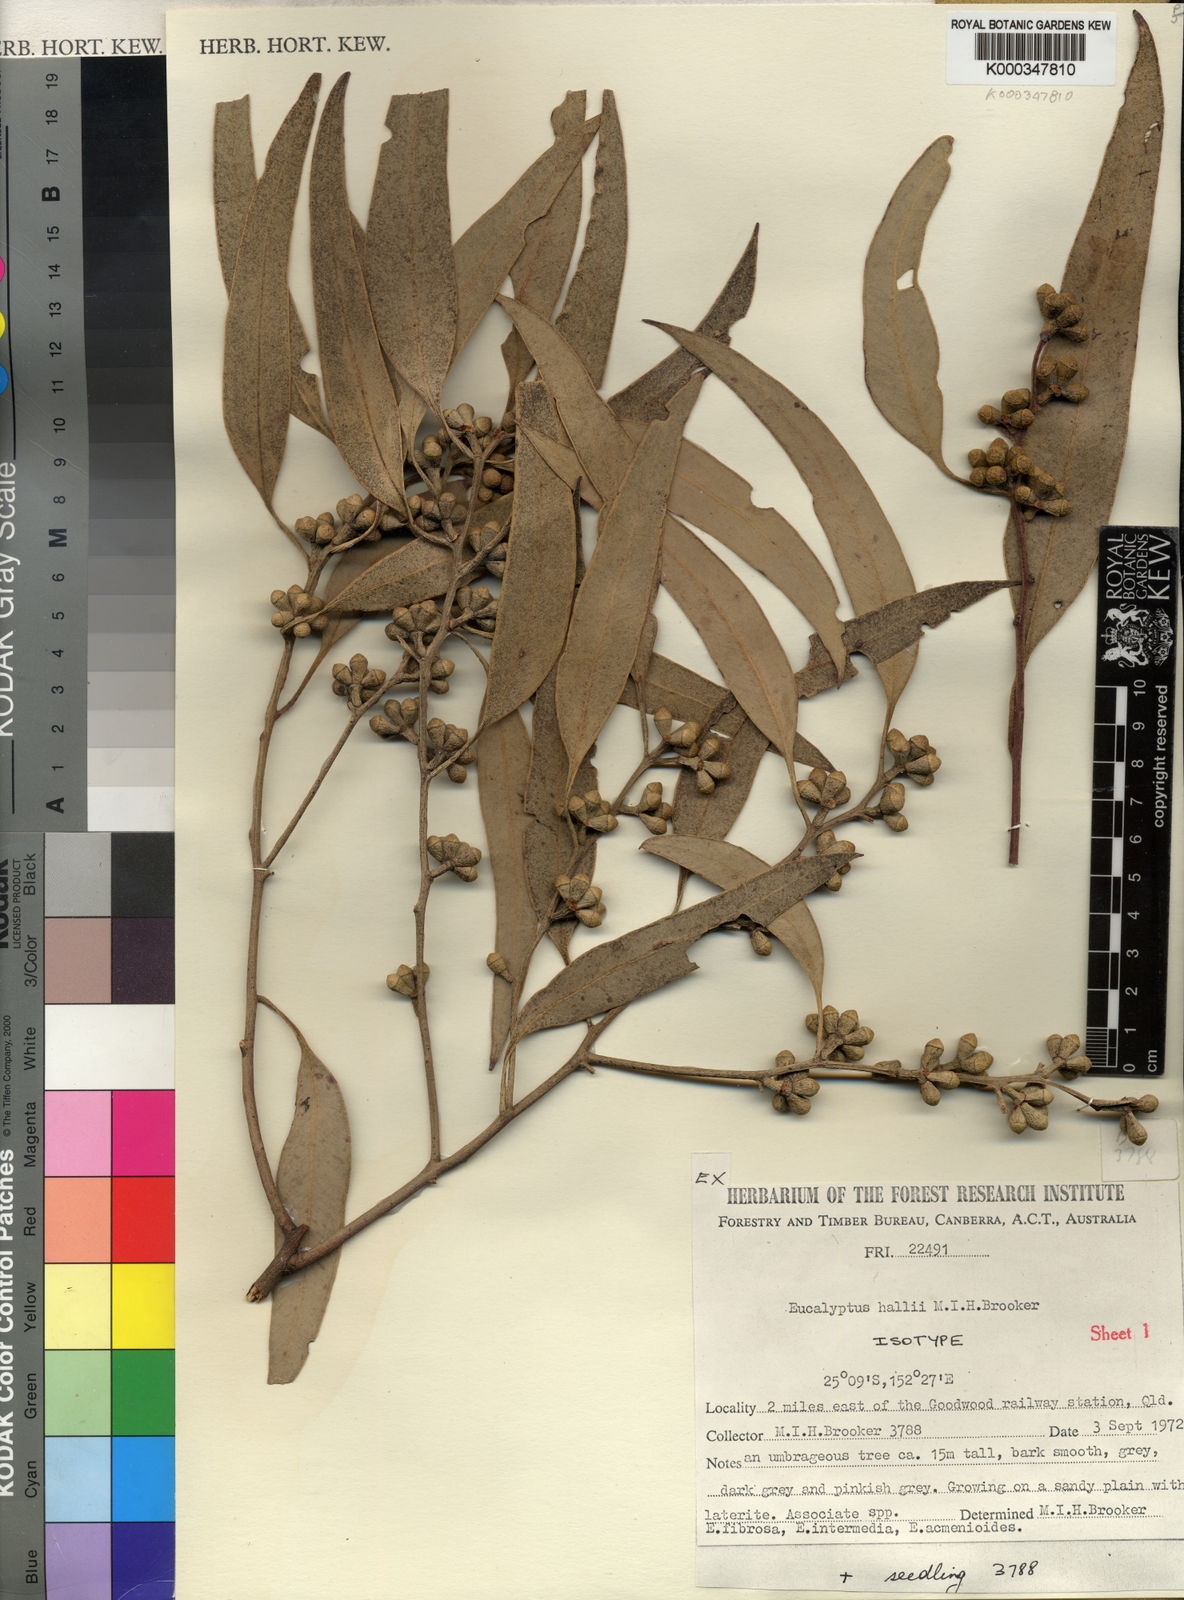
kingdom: Plantae
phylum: Tracheophyta
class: Magnoliopsida
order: Myrtales
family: Myrtaceae
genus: Eucalyptus
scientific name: Eucalyptus hallii
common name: Goodwood gum
